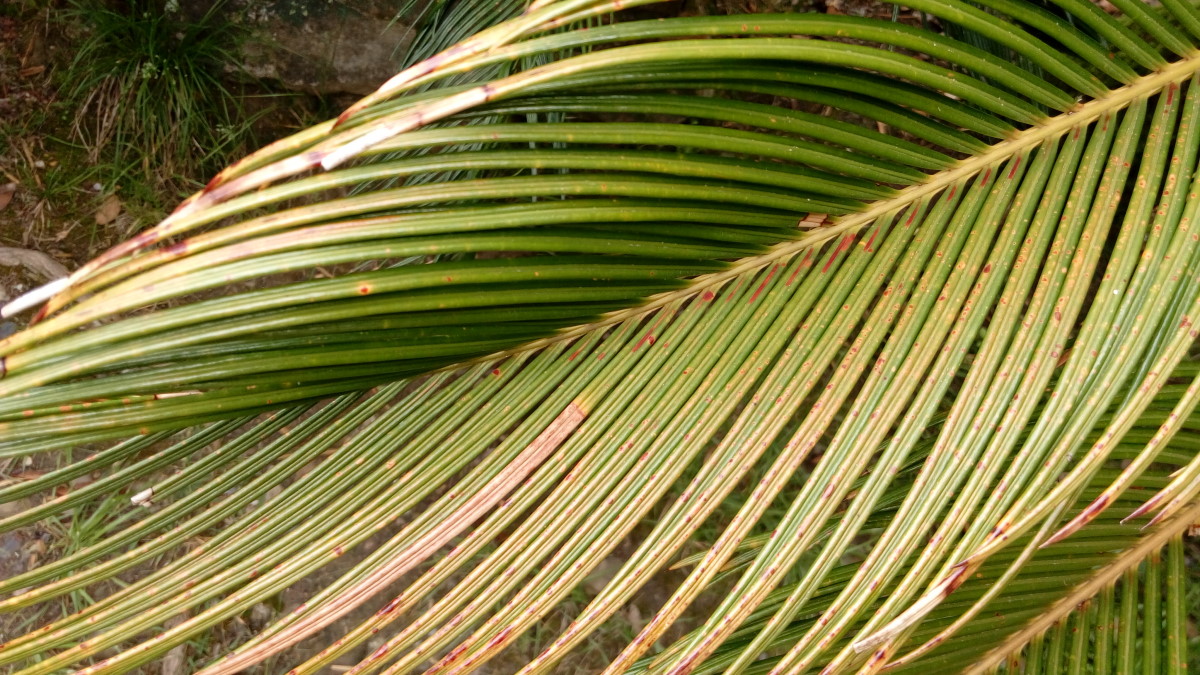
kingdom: Plantae
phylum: Tracheophyta
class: Cycadopsida
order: Cycadales
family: Cycadaceae
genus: Cycas
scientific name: Cycas revoluta
